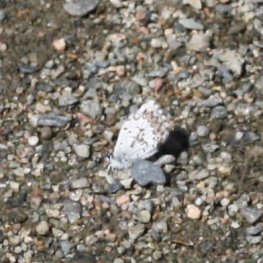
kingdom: Animalia
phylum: Arthropoda
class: Insecta
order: Lepidoptera
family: Lycaenidae
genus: Celastrina
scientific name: Celastrina lucia
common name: Northern Spring Azure
